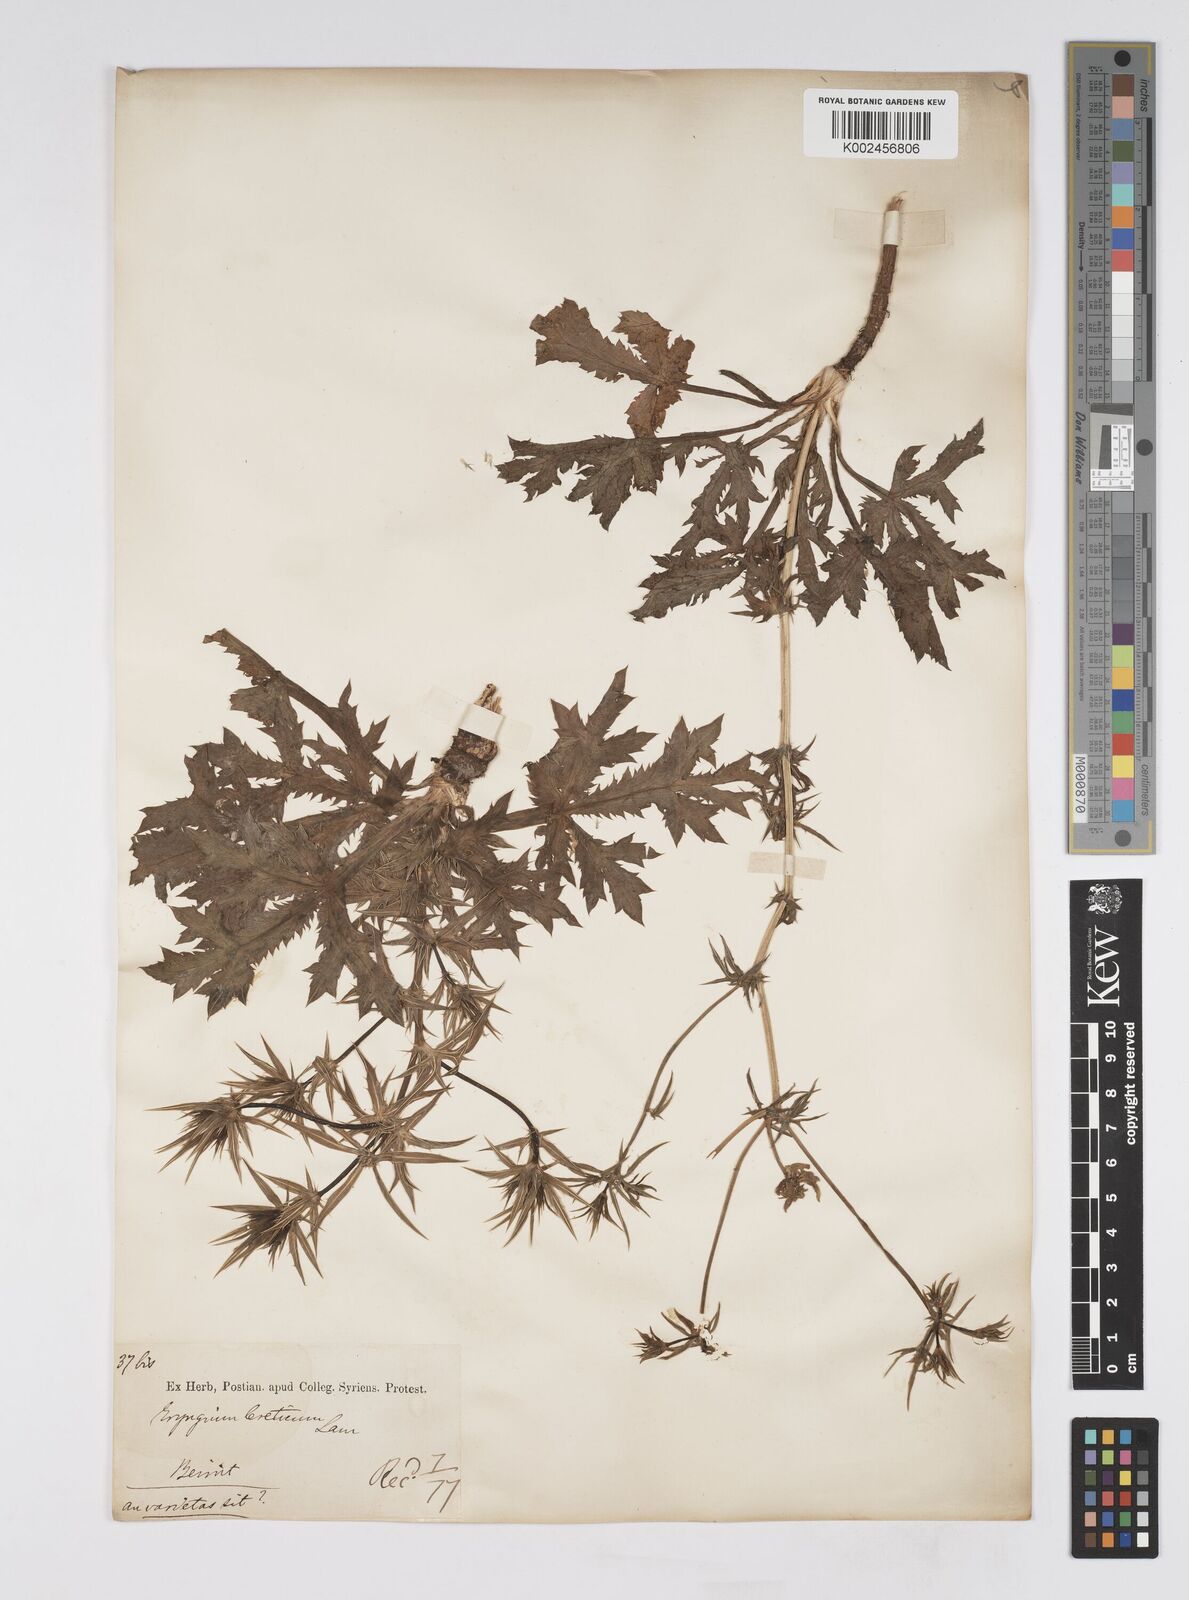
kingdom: Plantae
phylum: Tracheophyta
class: Magnoliopsida
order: Apiales
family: Apiaceae
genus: Eryngium
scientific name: Eryngium creticum
